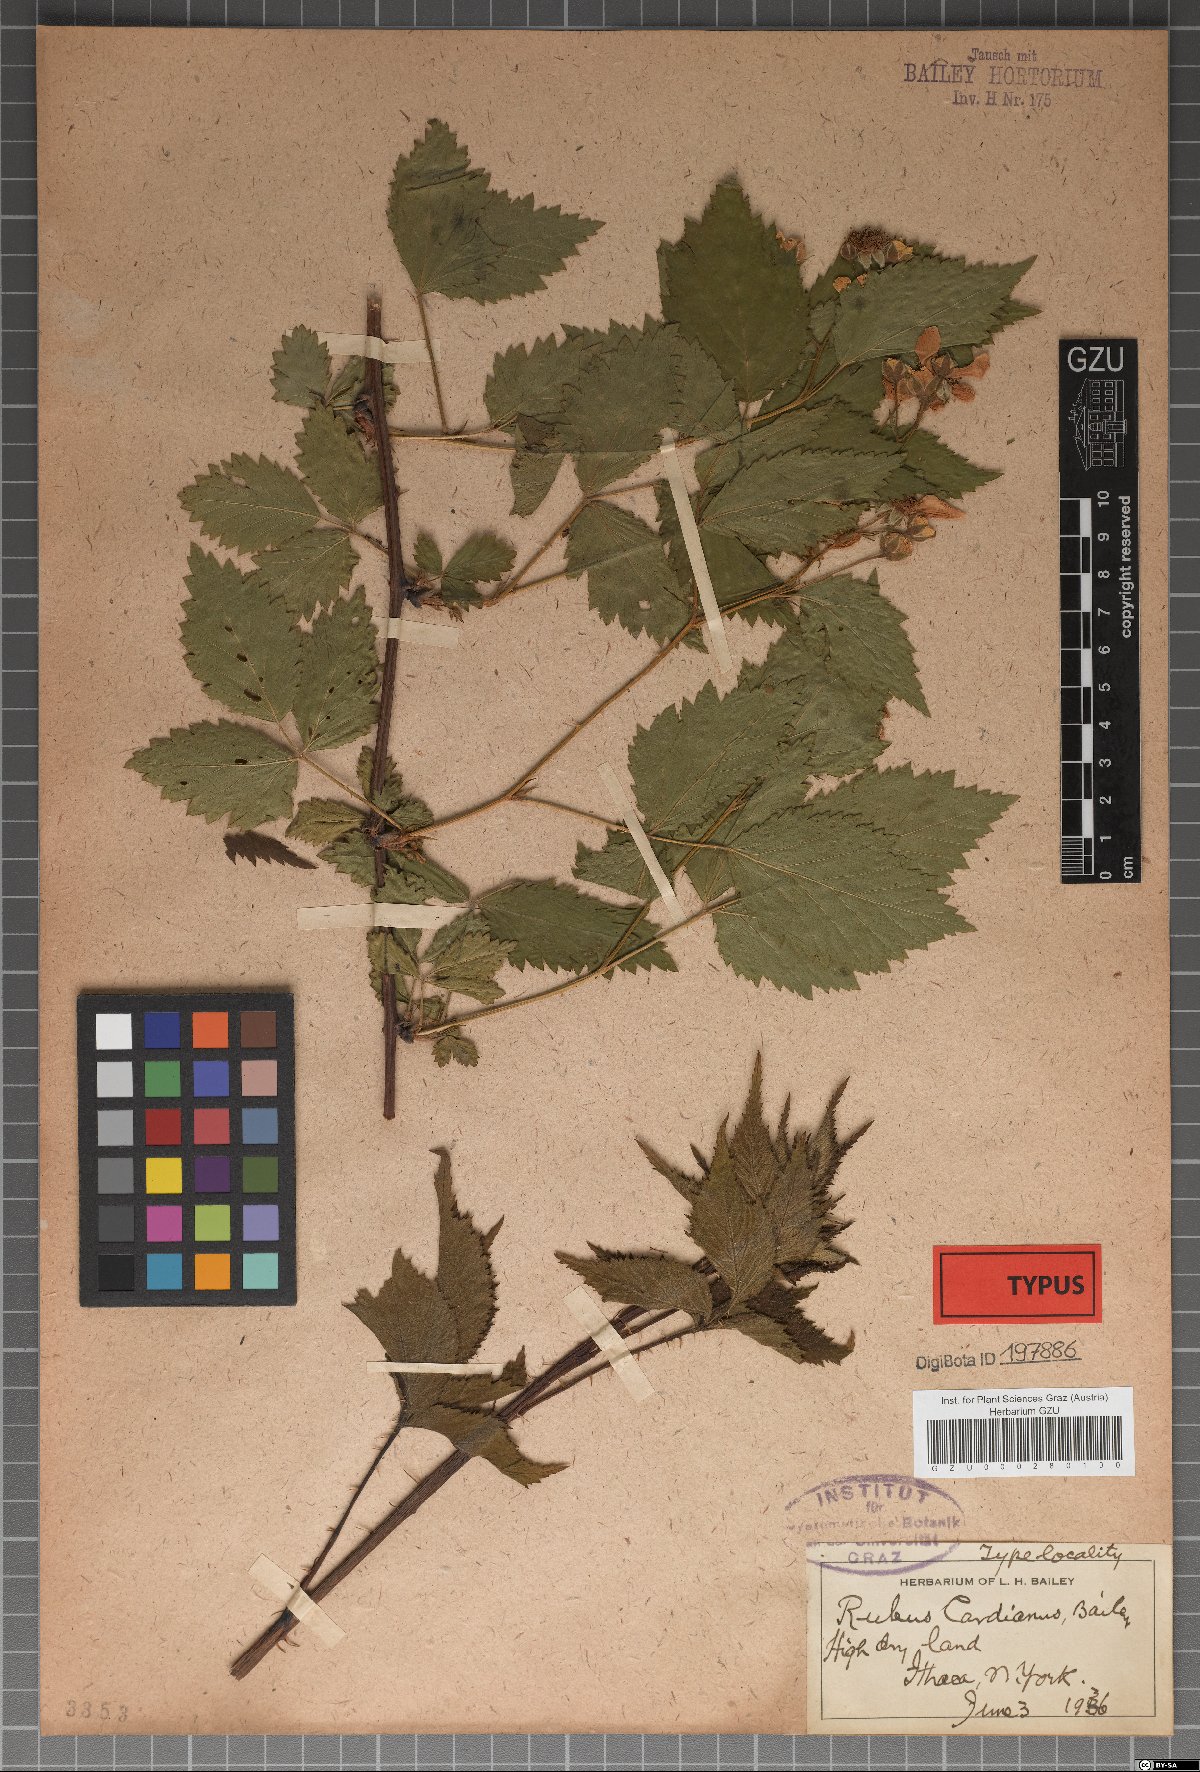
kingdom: Plantae
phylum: Tracheophyta
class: Magnoliopsida
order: Rosales
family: Rosaceae
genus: Rubus
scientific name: Rubus frondosus
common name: Yankee blackberry
